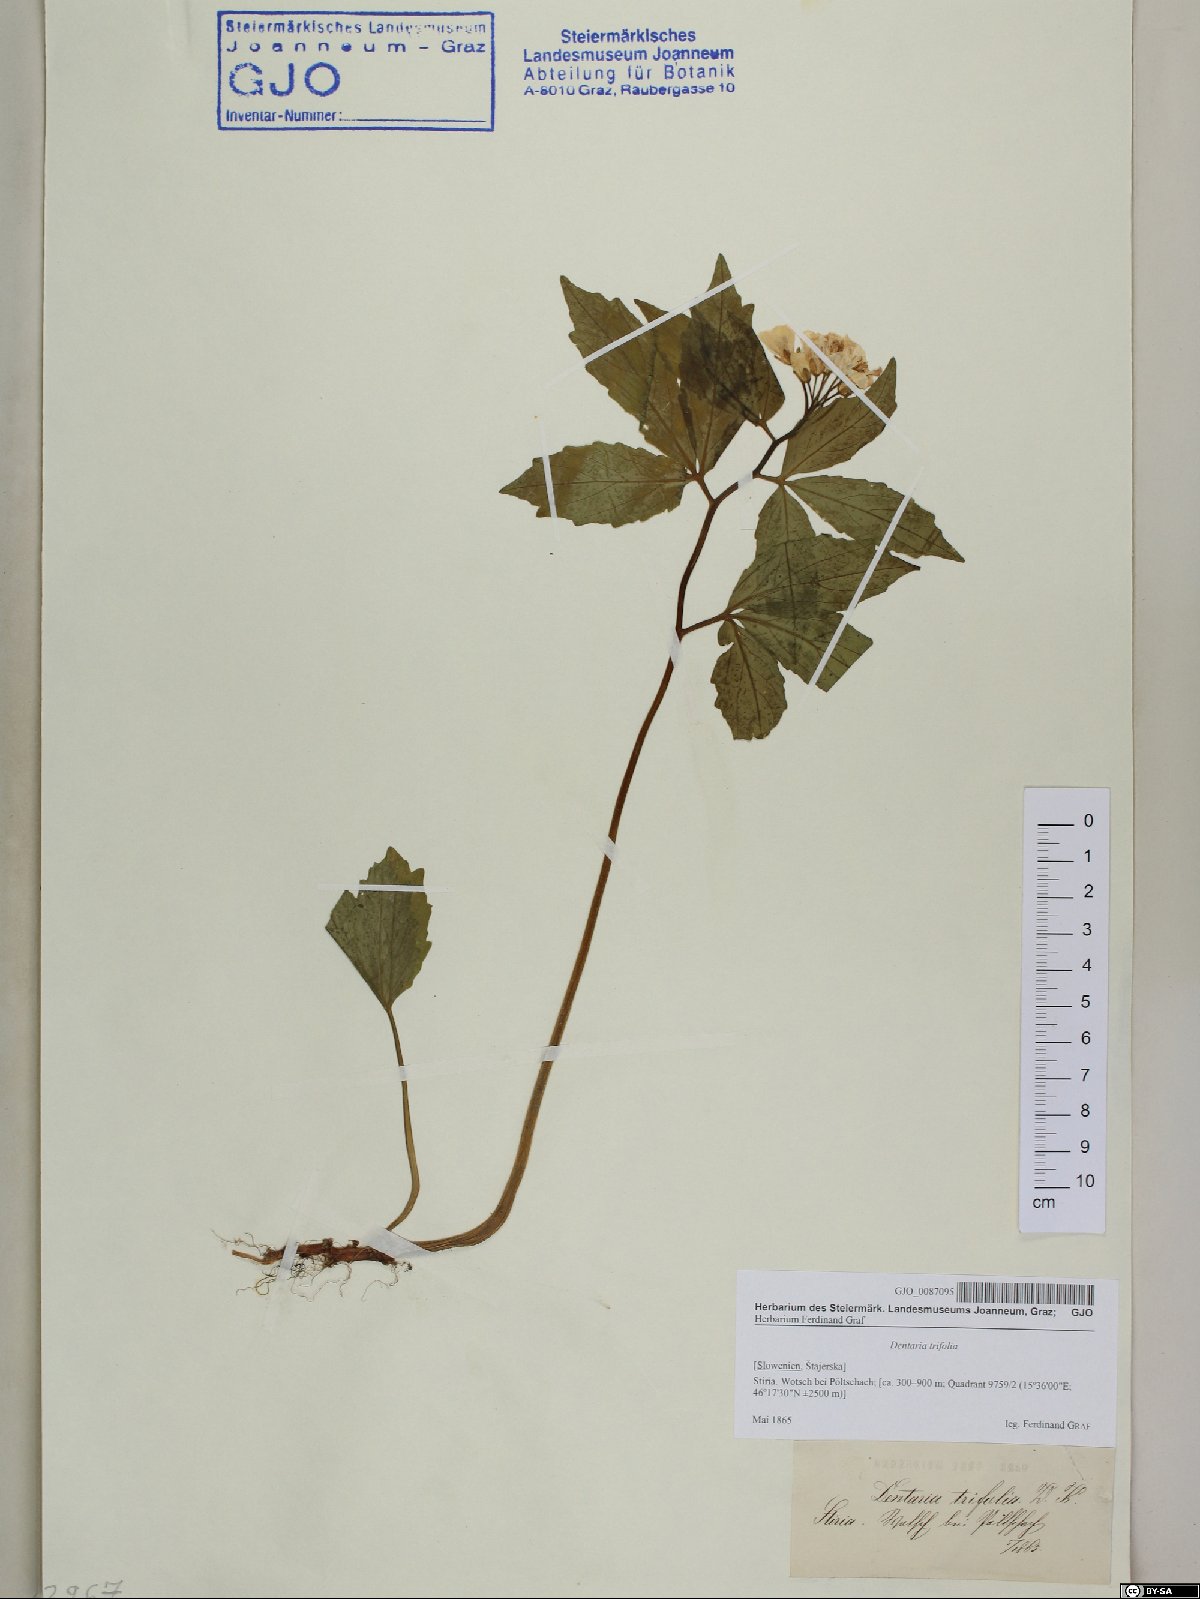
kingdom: Plantae
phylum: Tracheophyta
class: Magnoliopsida
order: Brassicales
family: Brassicaceae
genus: Cardamine
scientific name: Cardamine waldsteinii
